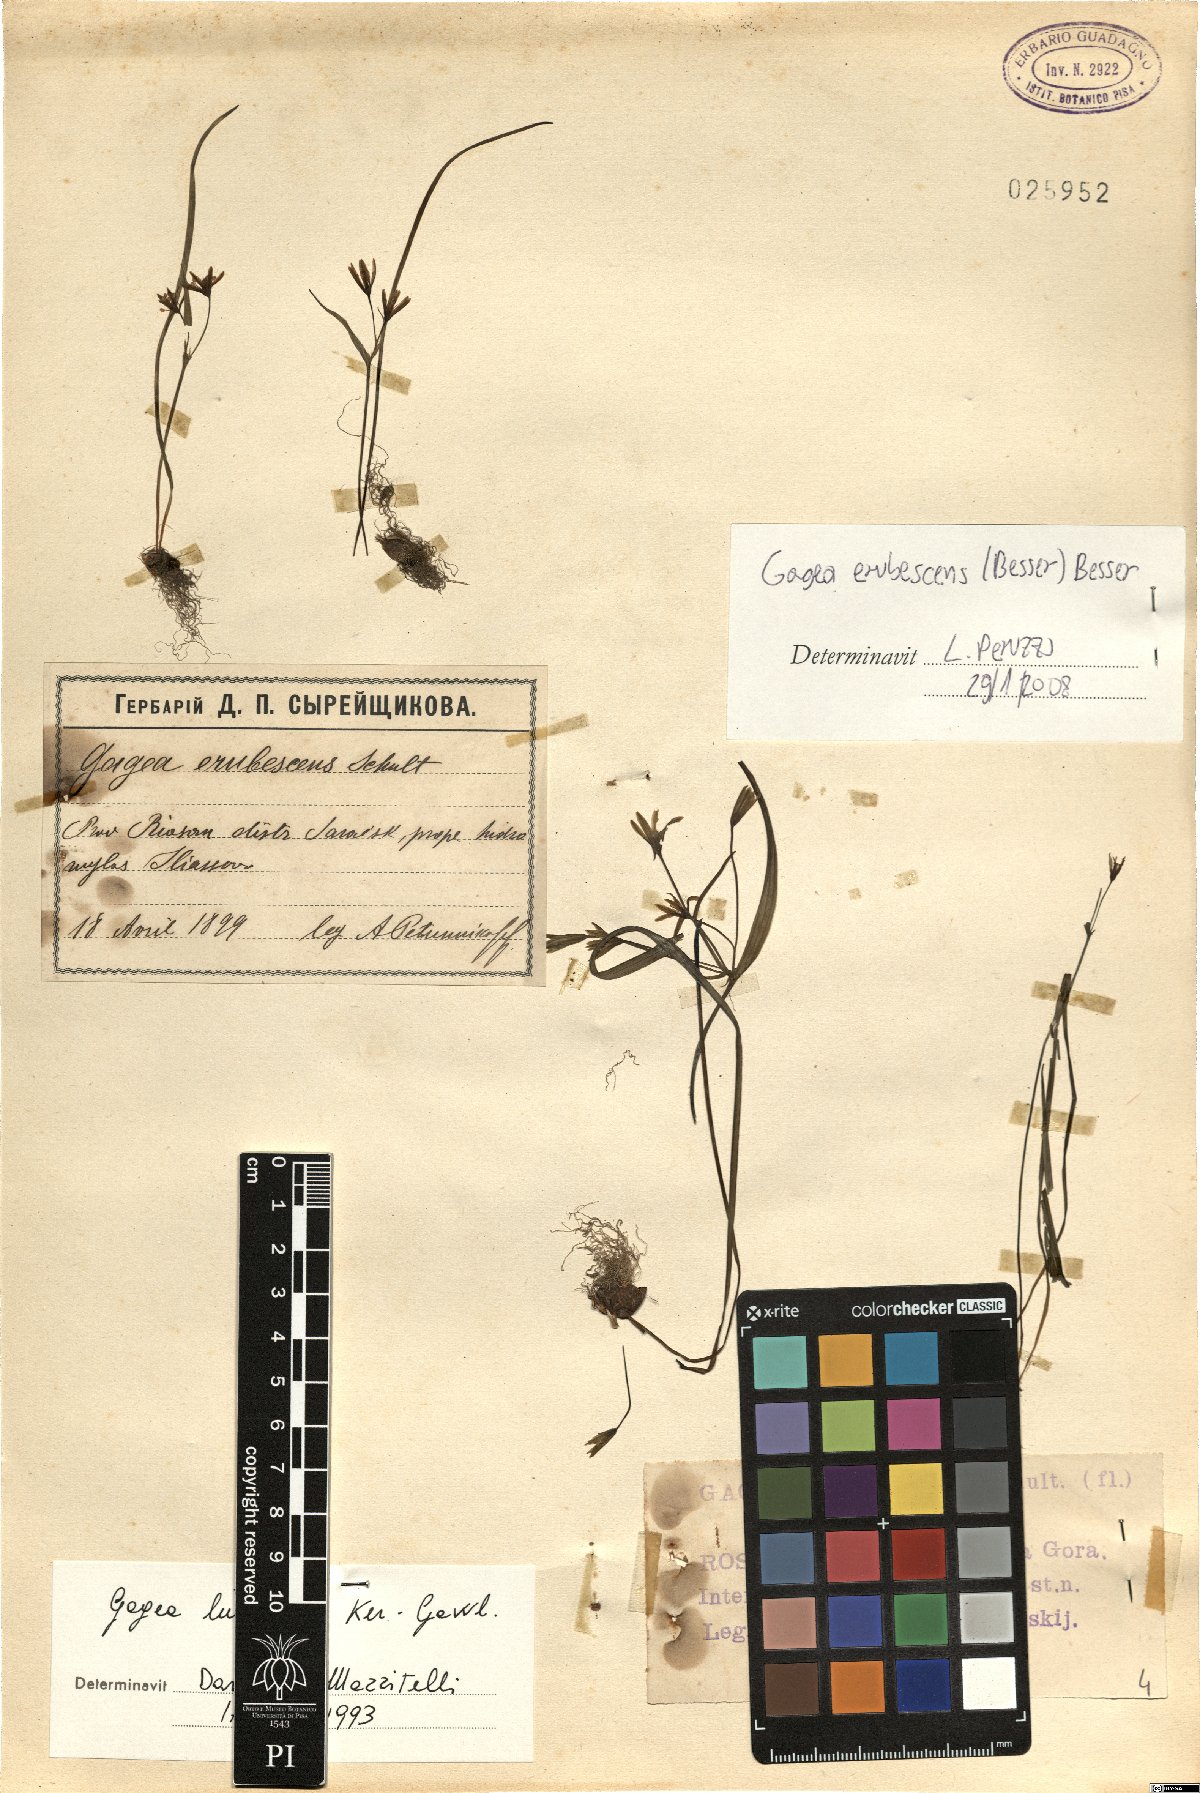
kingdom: Plantae
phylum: Tracheophyta
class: Liliopsida
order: Liliales
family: Liliaceae
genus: Gagea
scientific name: Gagea fragifera
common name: Lily
